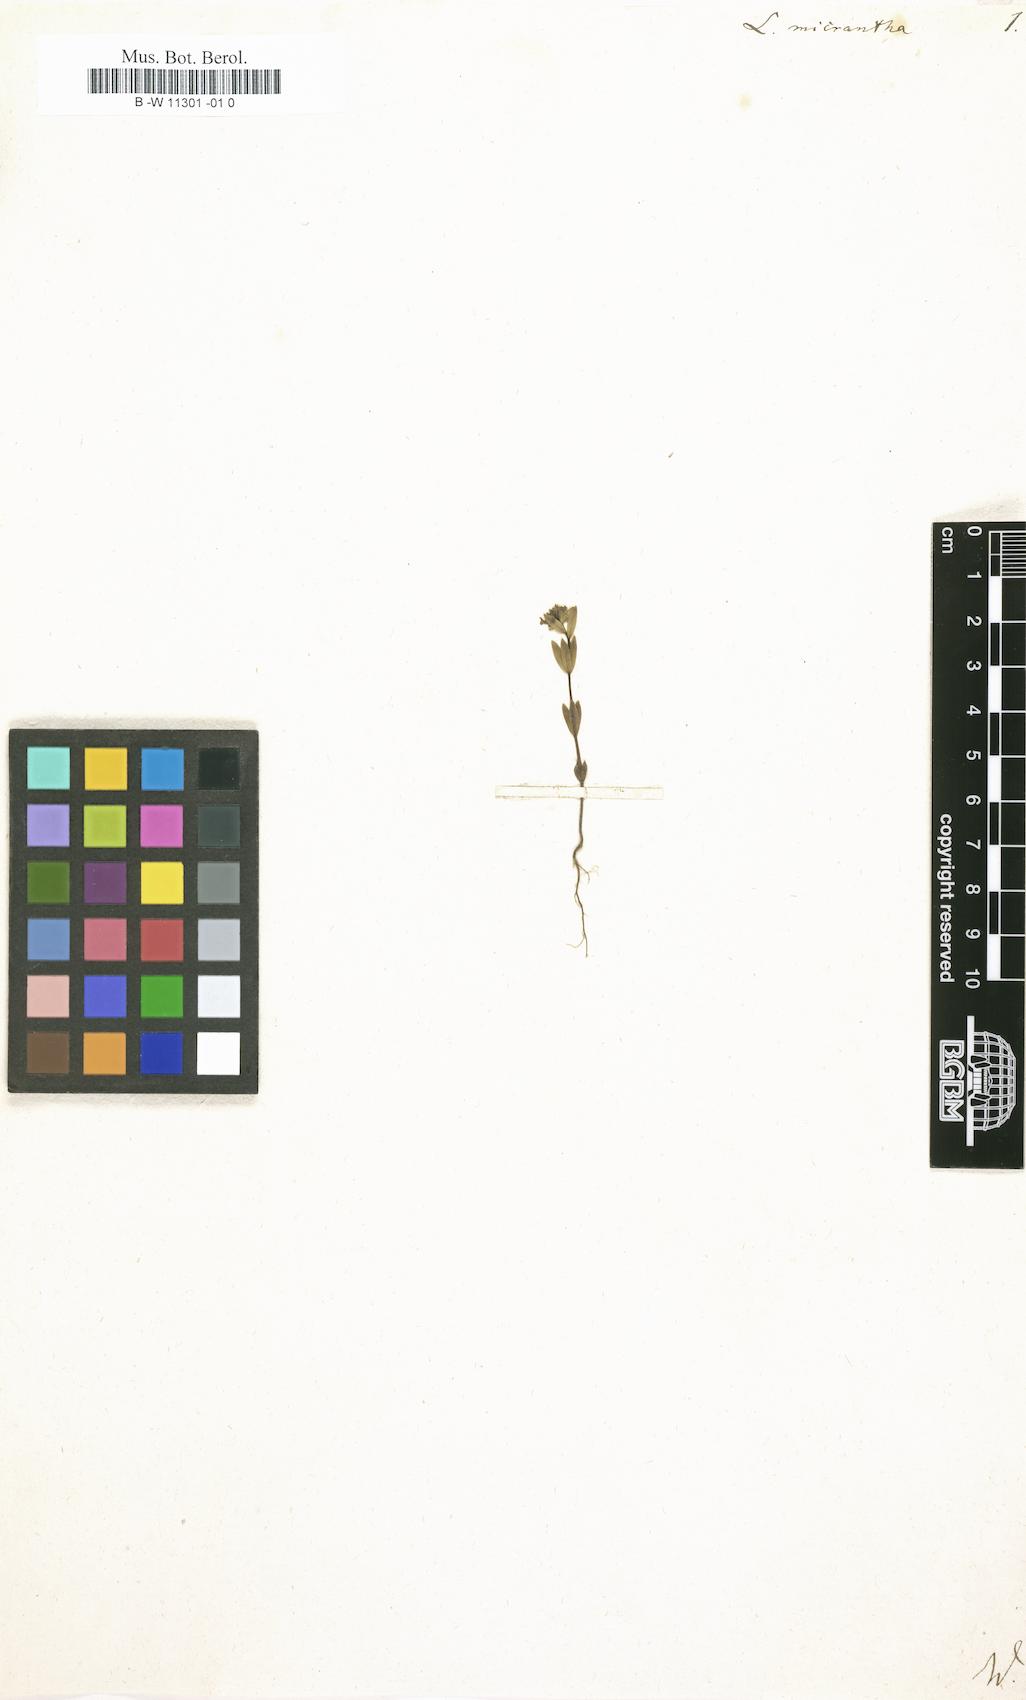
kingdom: Plantae
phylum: Tracheophyta
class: Magnoliopsida
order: Lamiales
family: Plantaginaceae
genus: Linaria
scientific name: Linaria micrantha
